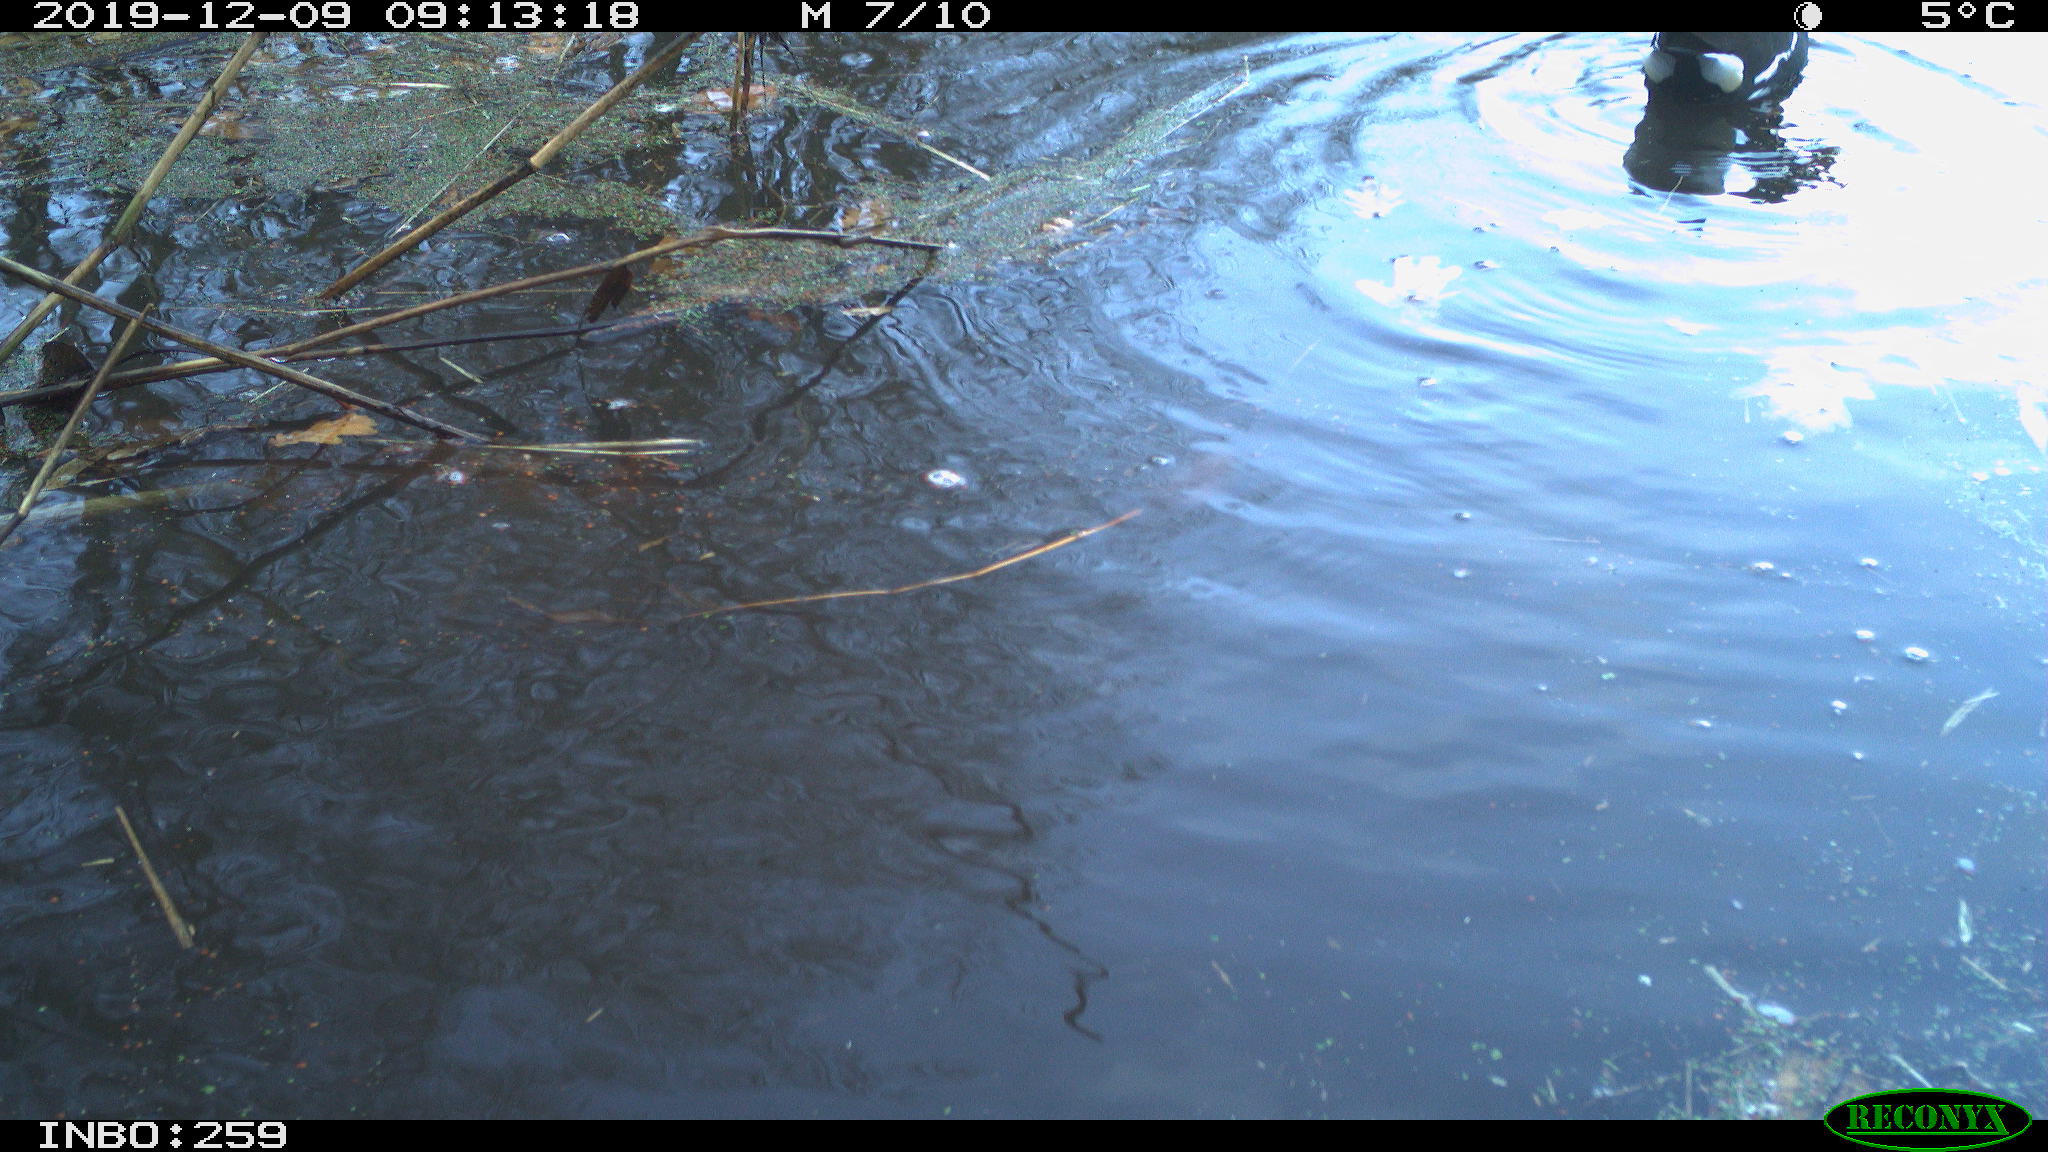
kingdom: Animalia
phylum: Chordata
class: Aves
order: Gruiformes
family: Rallidae
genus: Gallinula
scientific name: Gallinula chloropus
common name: Common moorhen
